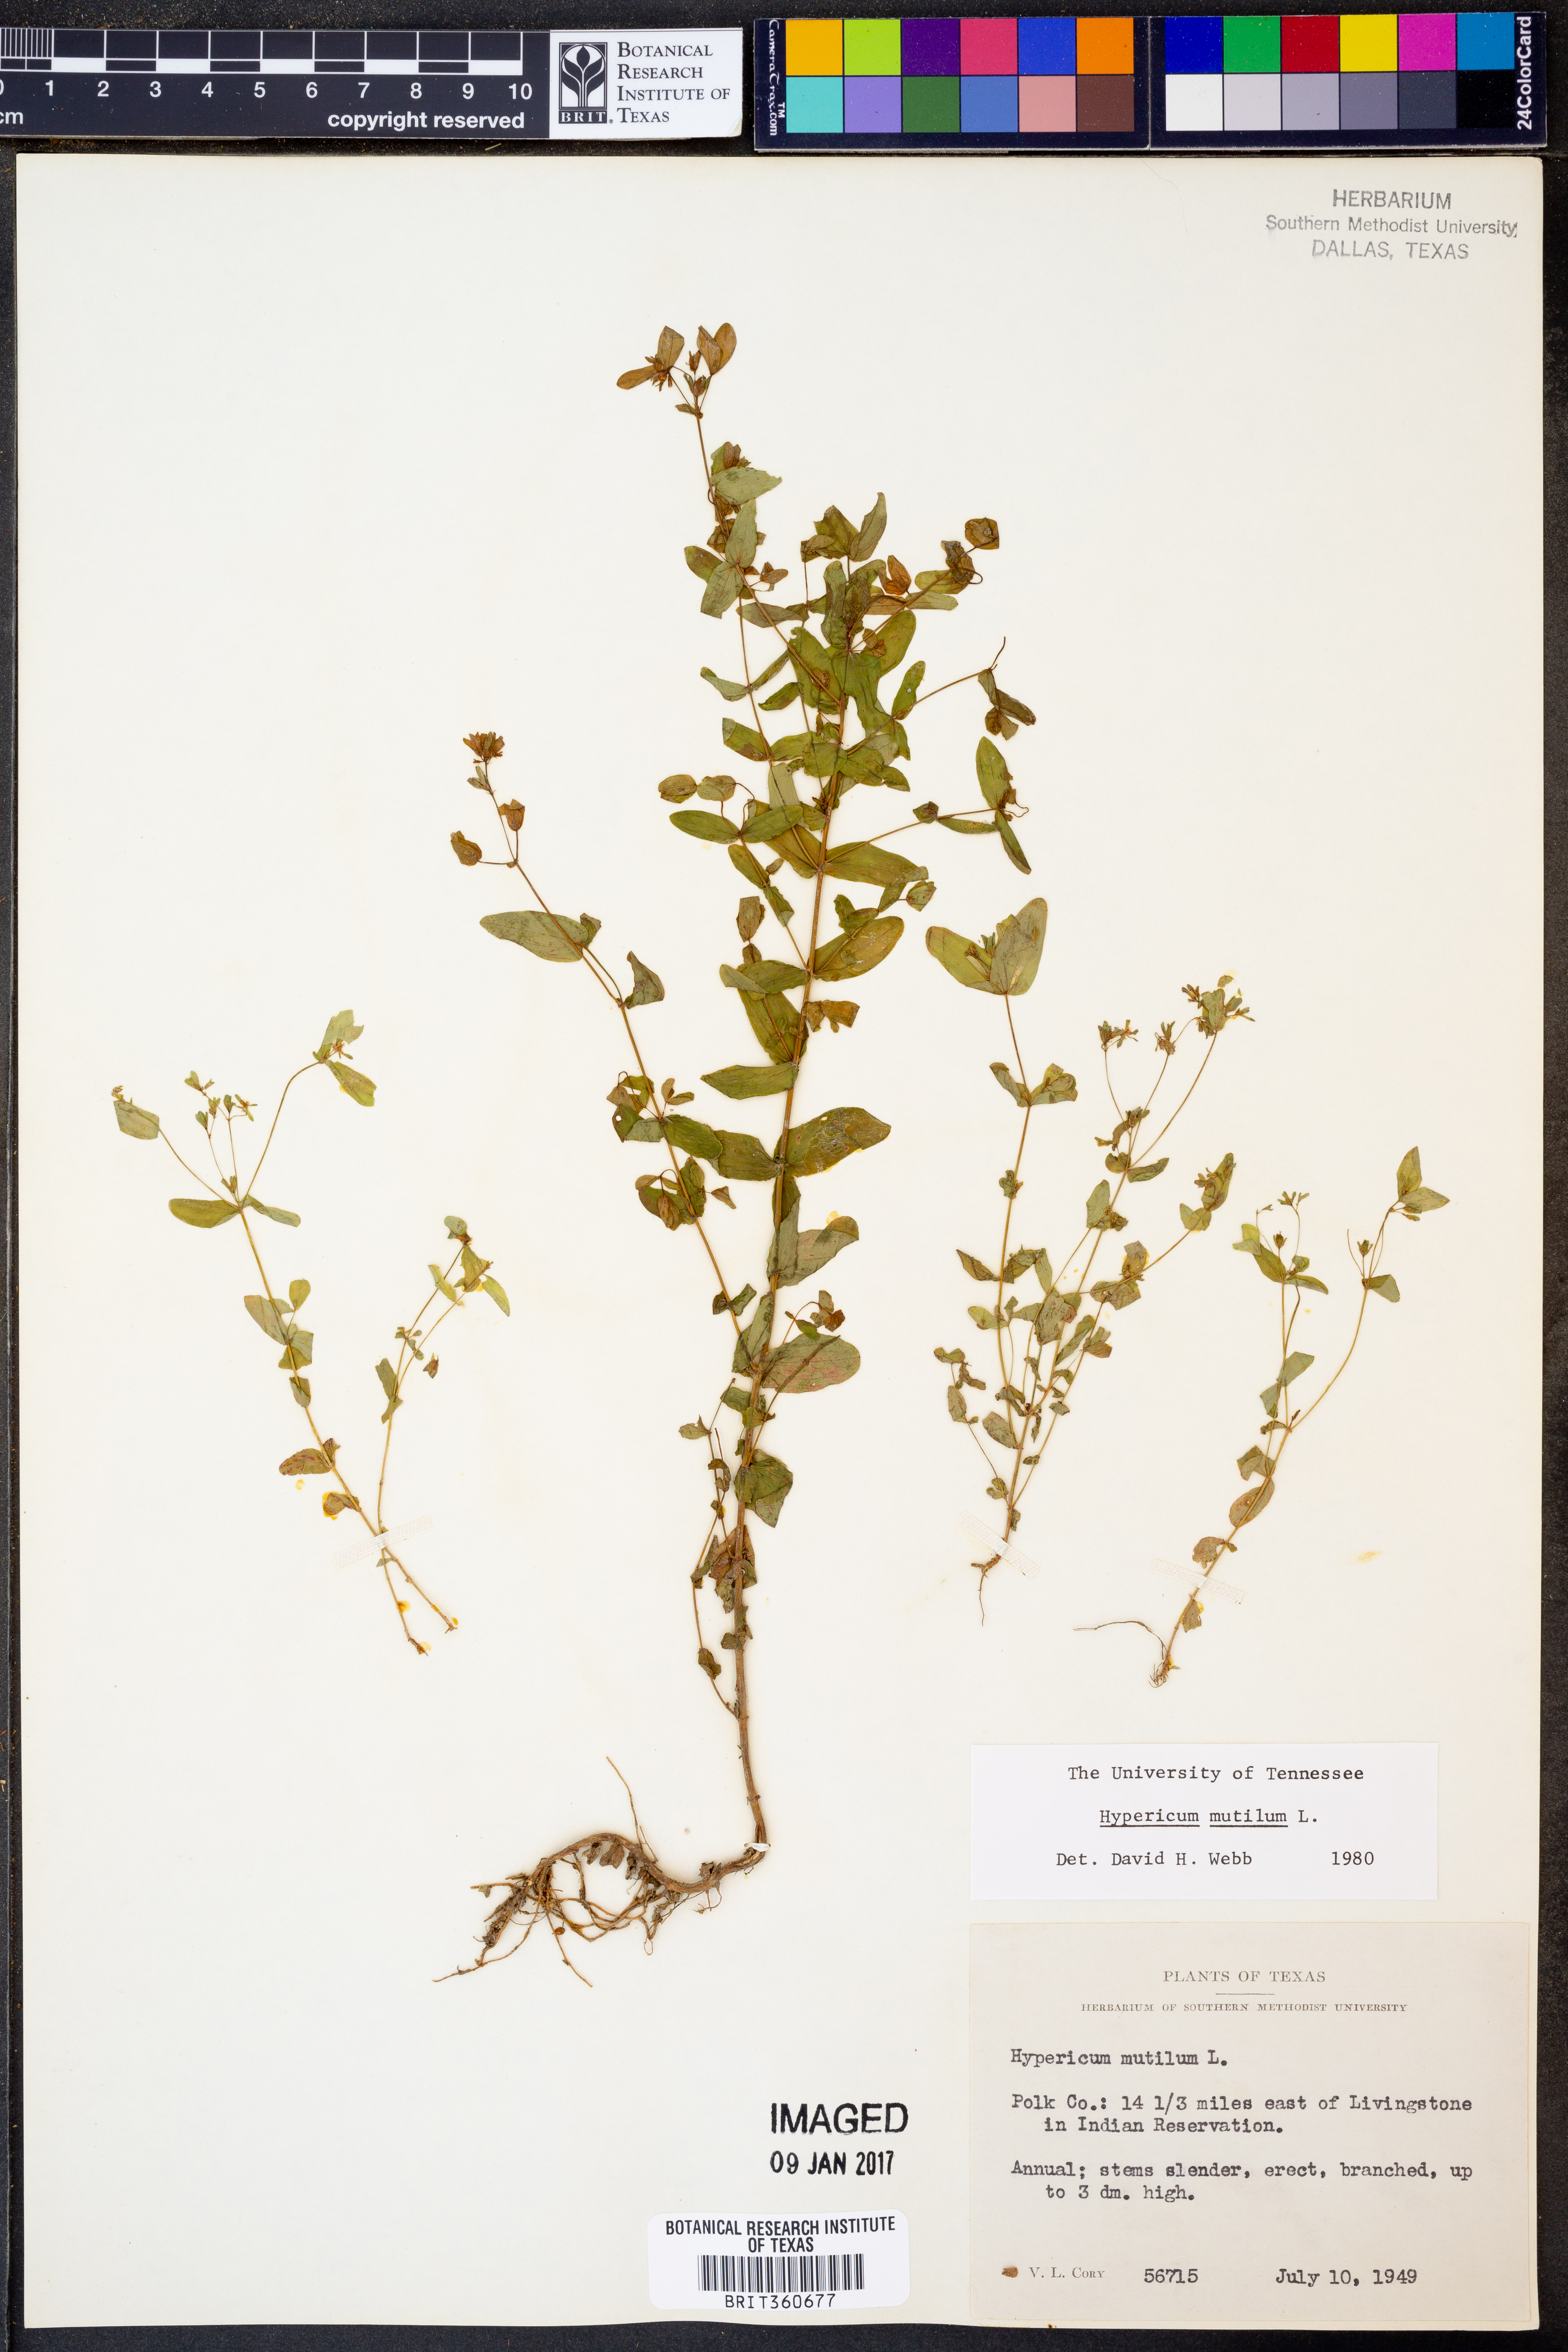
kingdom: Plantae
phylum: Tracheophyta
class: Magnoliopsida
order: Malpighiales
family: Hypericaceae
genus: Hypericum
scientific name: Hypericum mutilum
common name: Dwarf st. john's-wort
